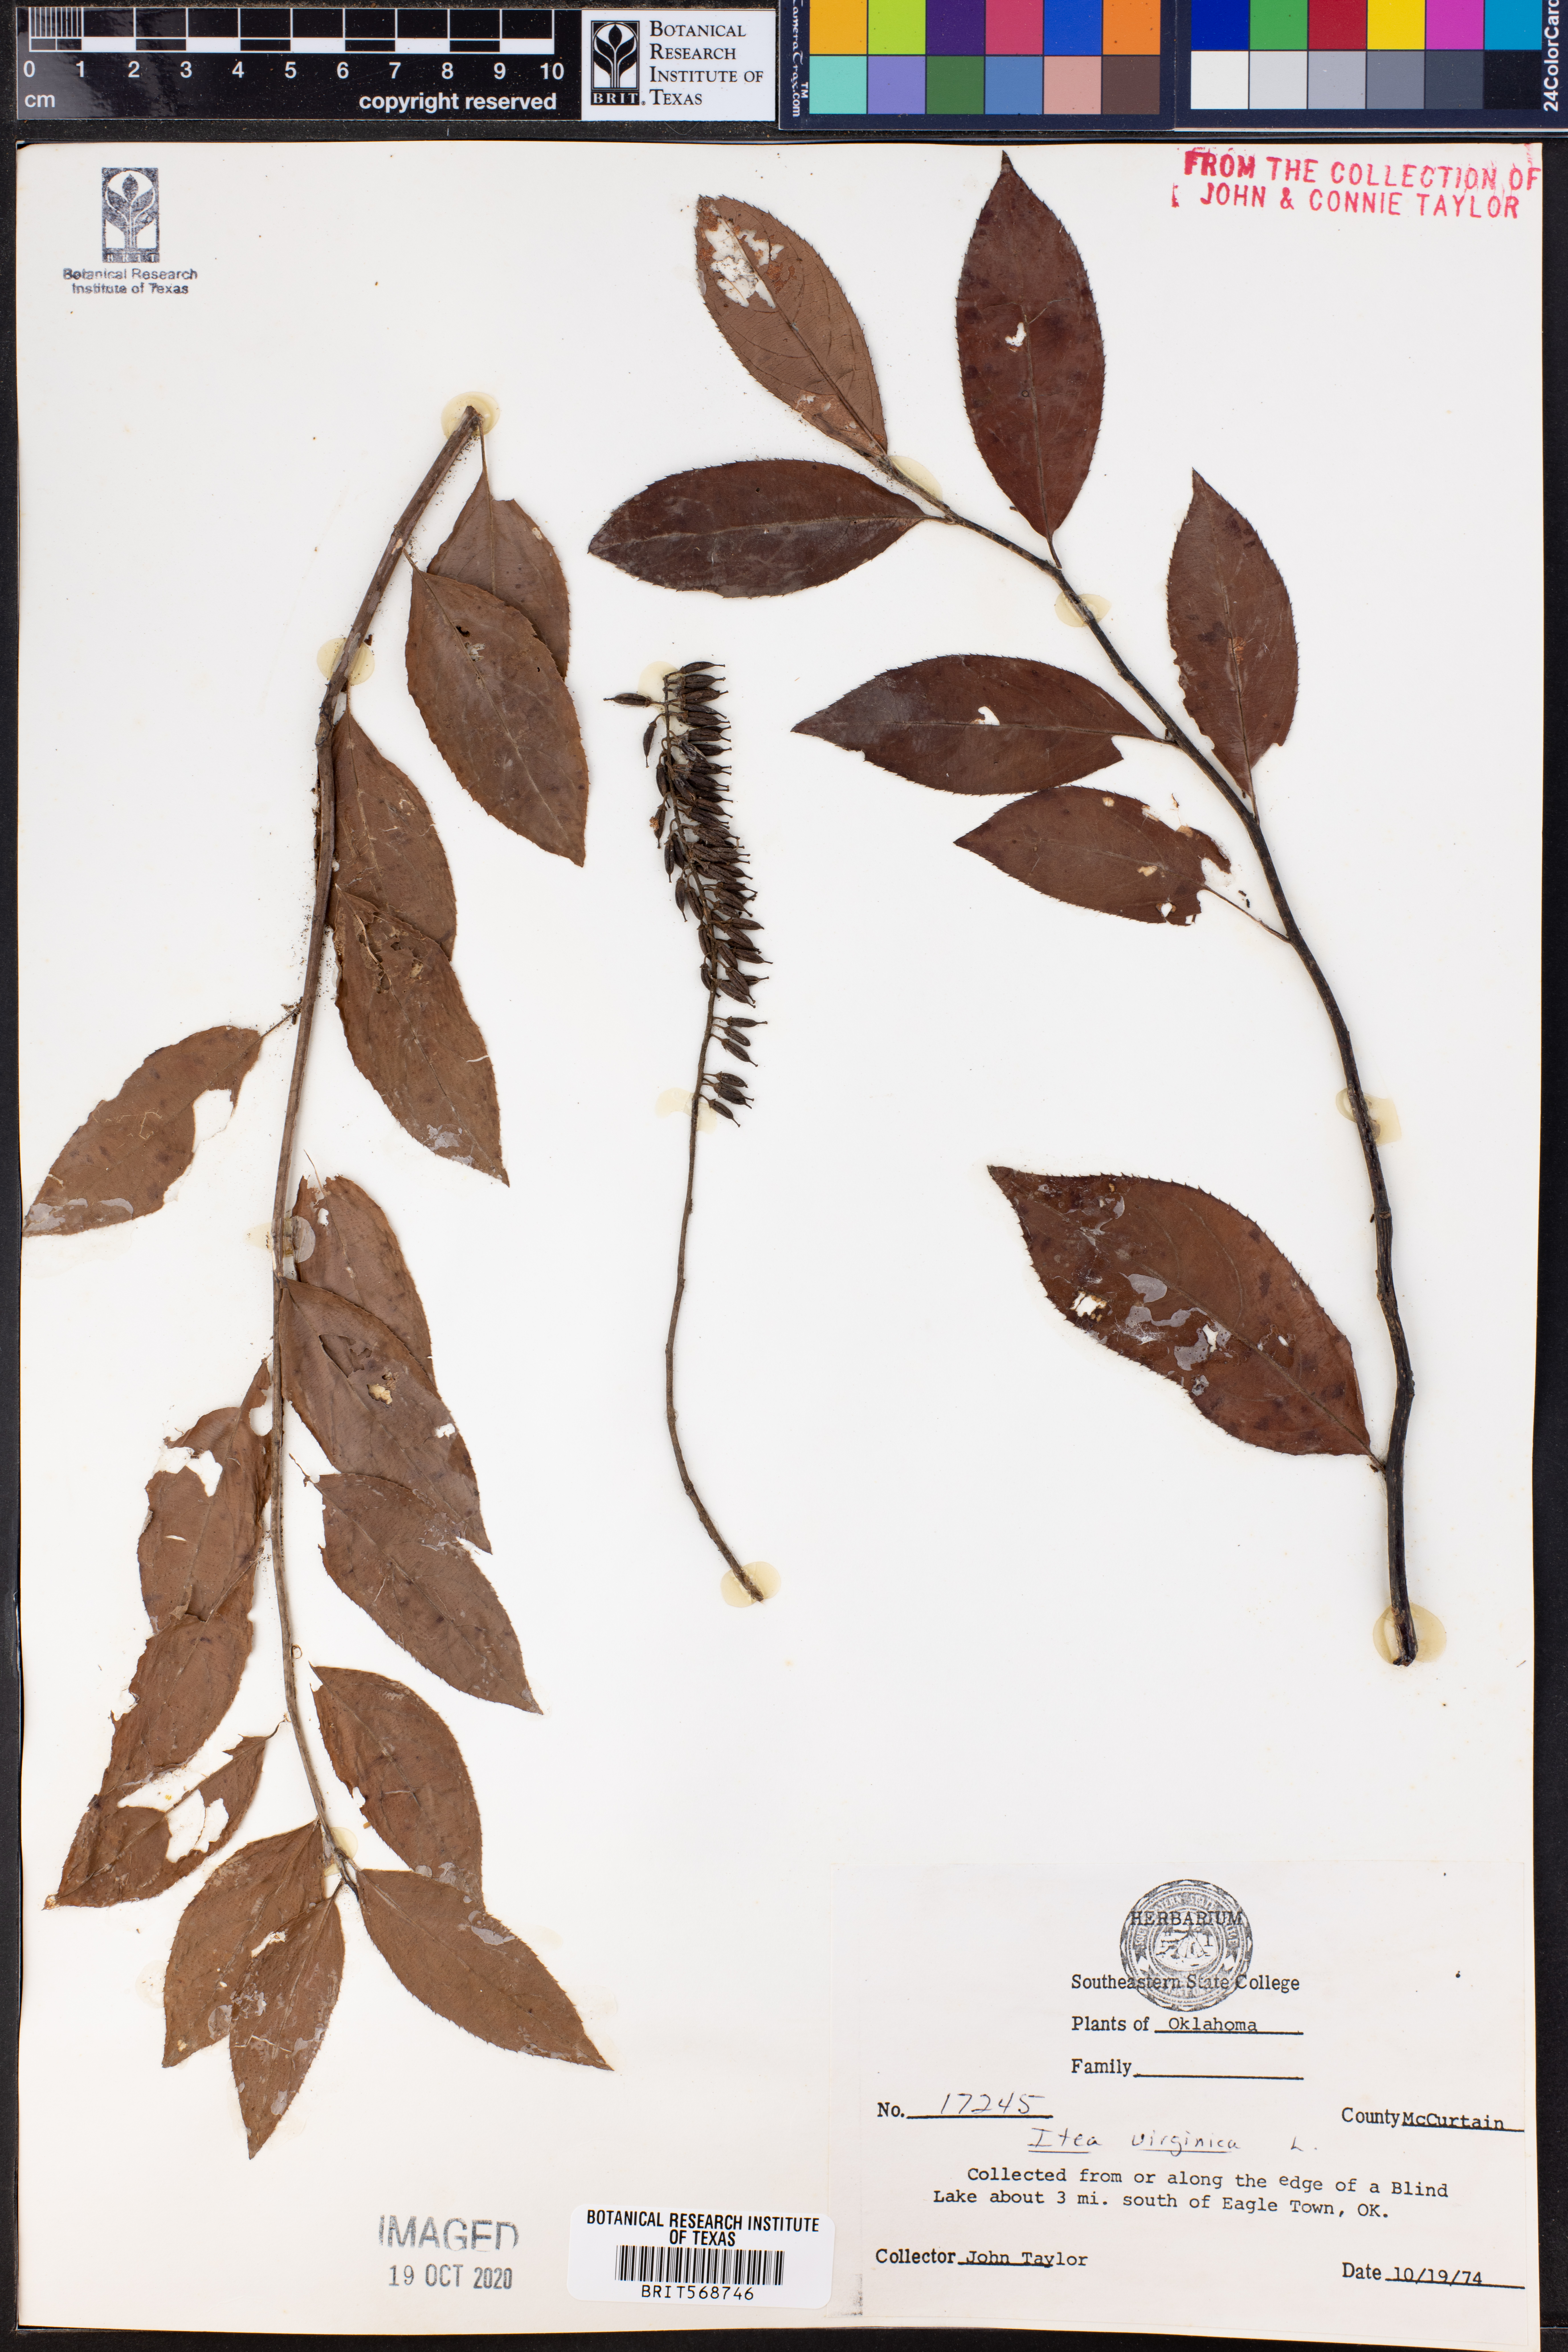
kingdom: Plantae
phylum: Tracheophyta
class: Magnoliopsida
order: Saxifragales
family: Iteaceae
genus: Itea
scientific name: Itea virginica
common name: Sweetspire
